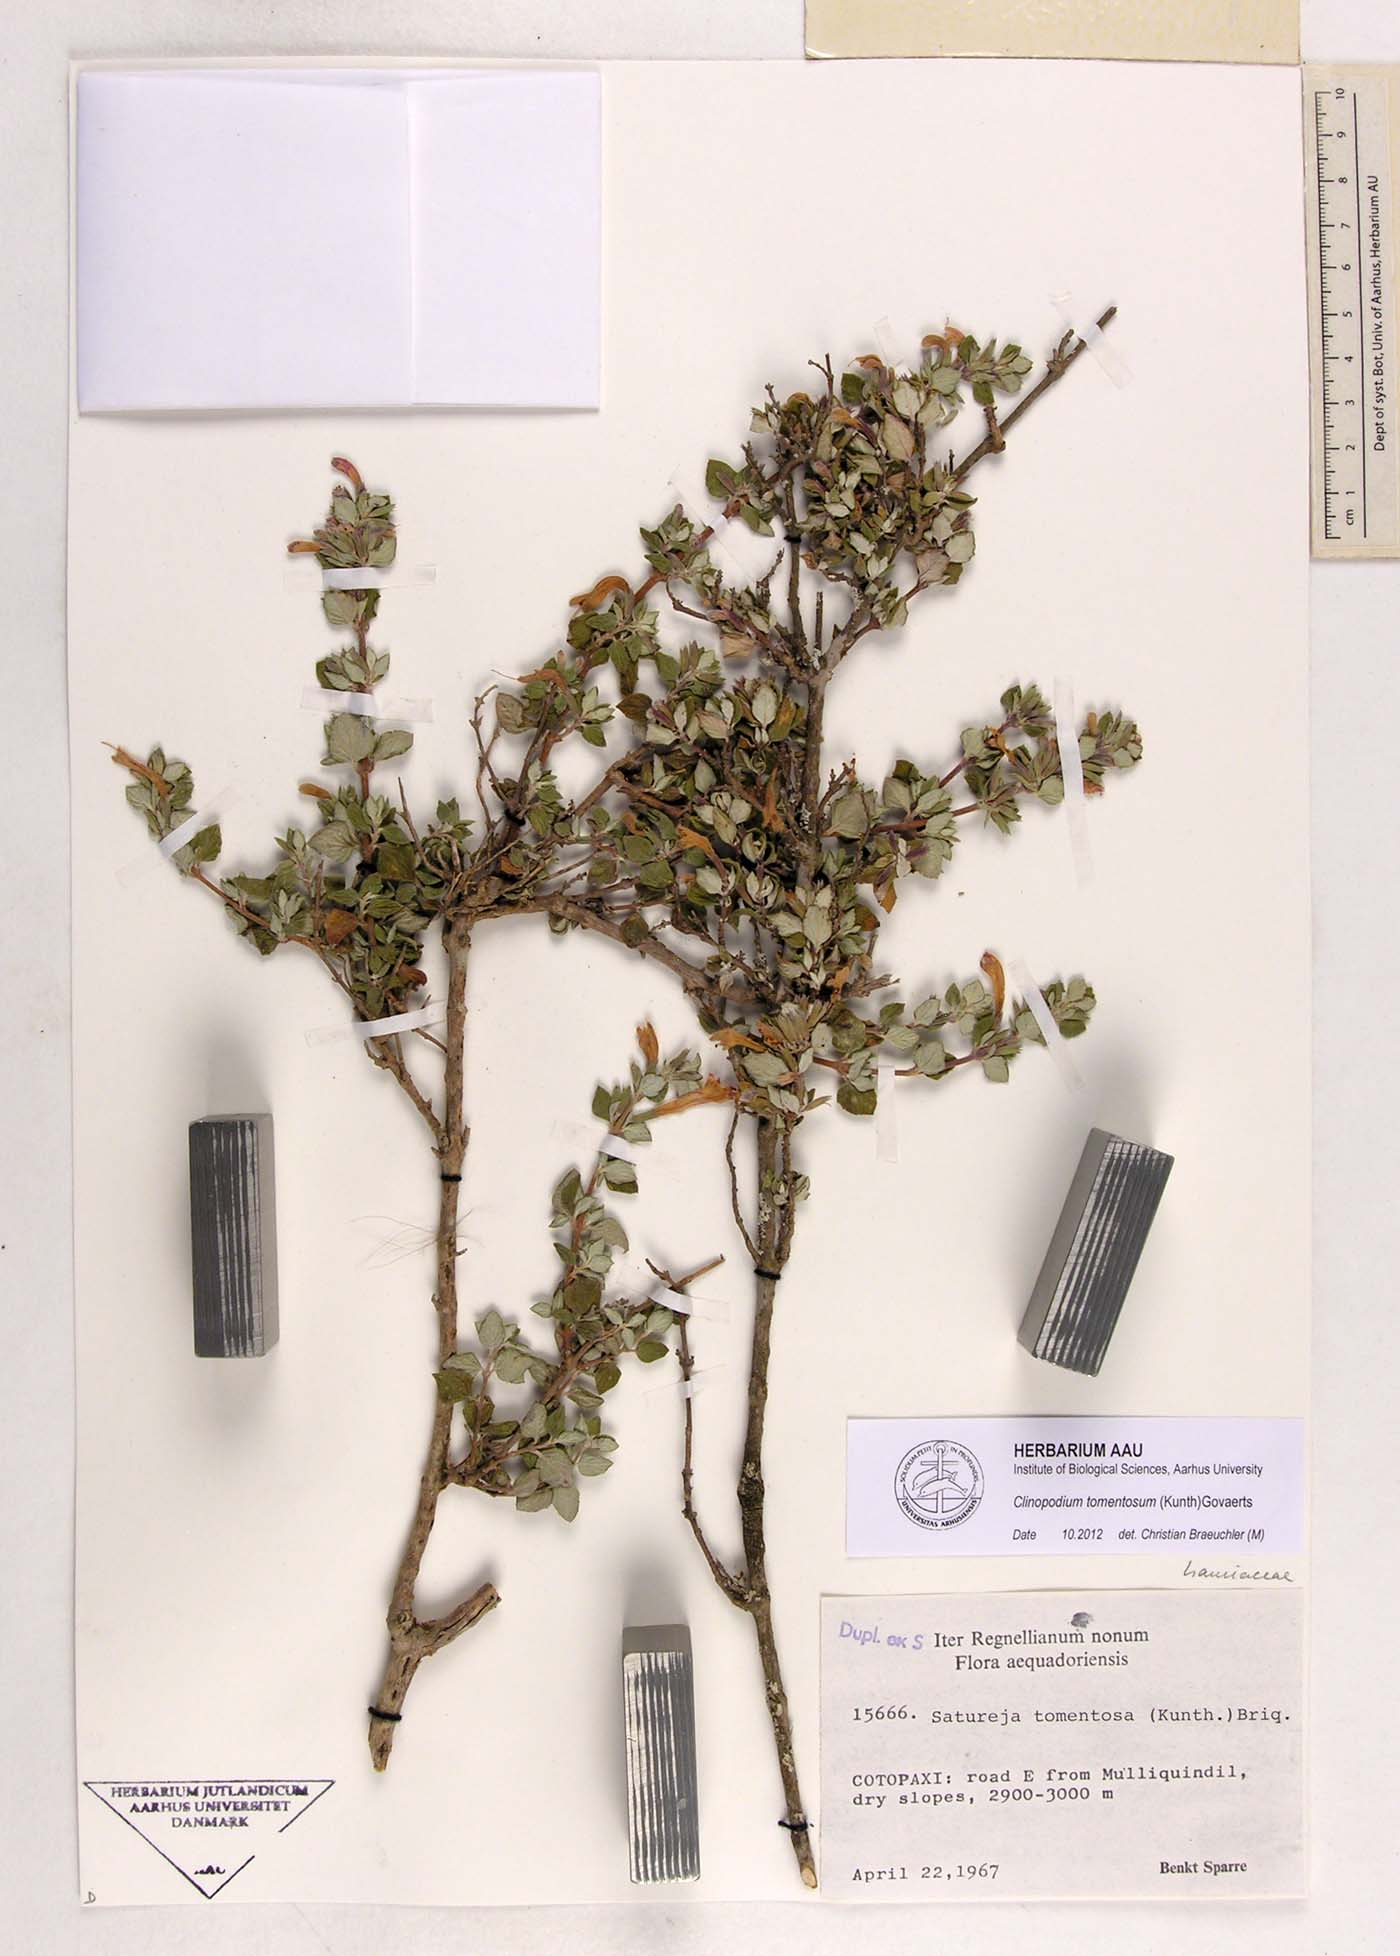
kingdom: Plantae
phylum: Tracheophyta
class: Magnoliopsida
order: Lamiales
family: Lamiaceae
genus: Clinopodium
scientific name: Clinopodium tomentosum
